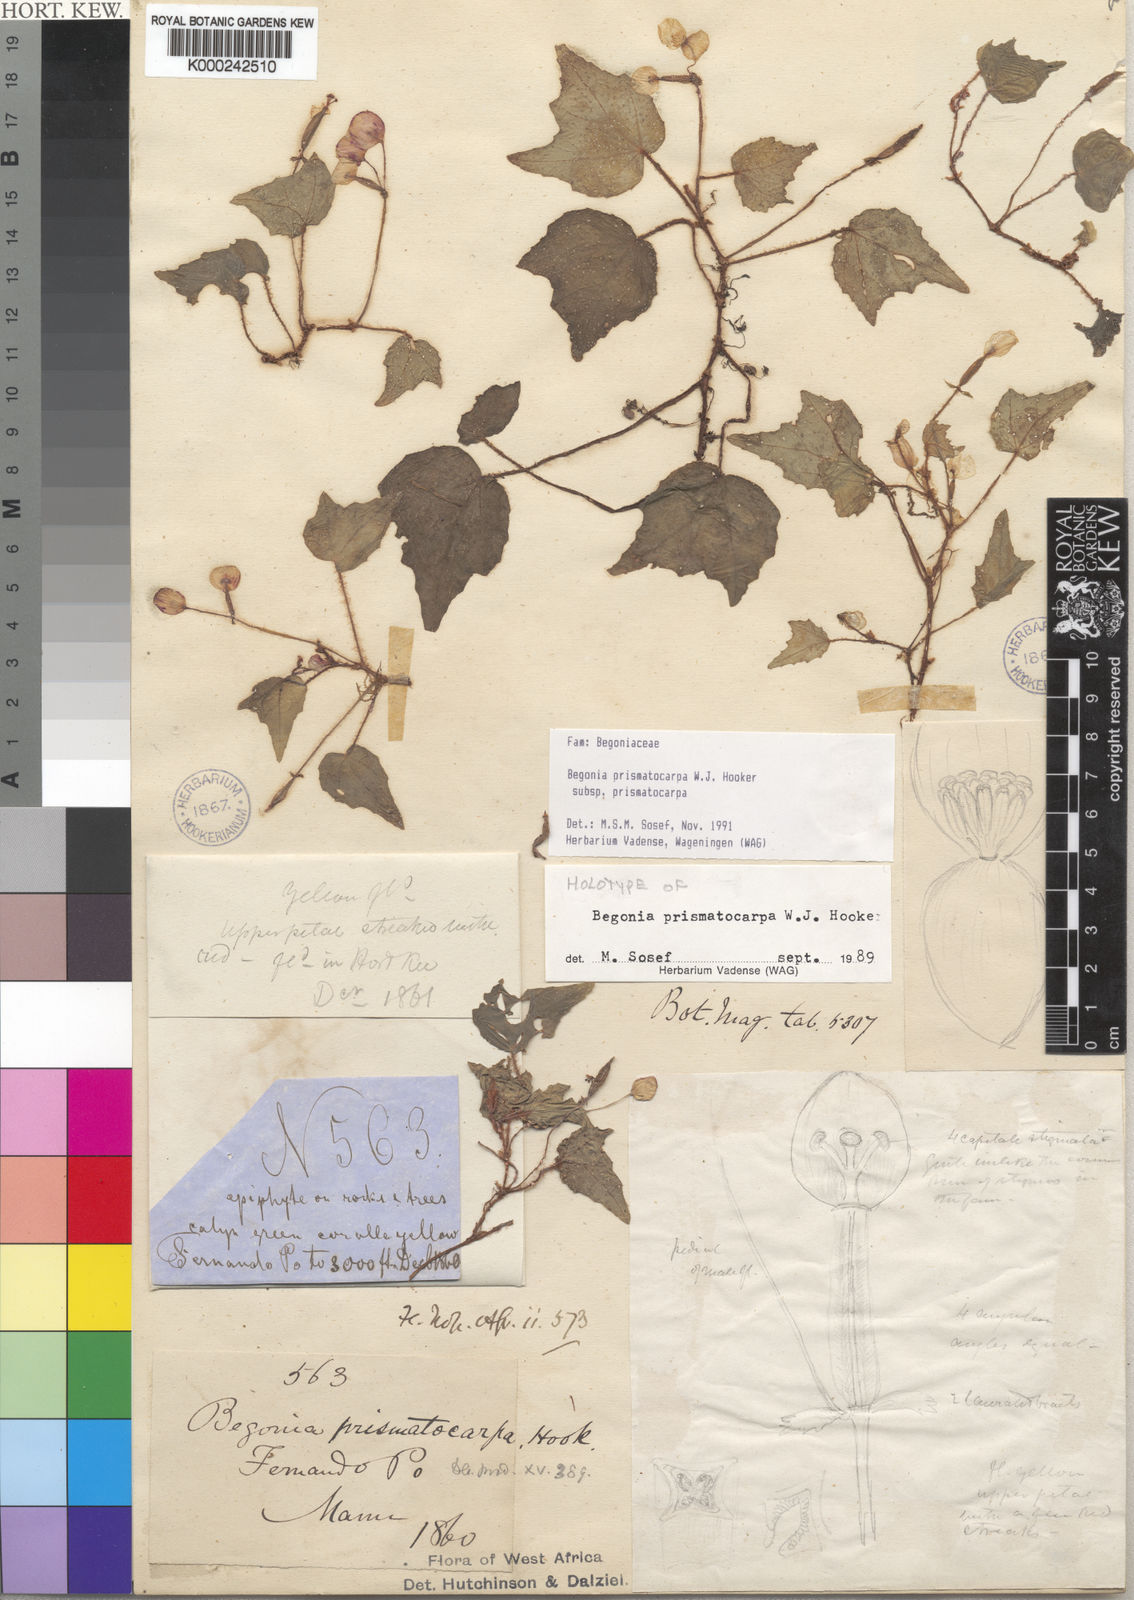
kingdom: Plantae
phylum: Tracheophyta
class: Magnoliopsida
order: Cucurbitales
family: Begoniaceae
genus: Begonia
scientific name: Begonia prismatocarpa
